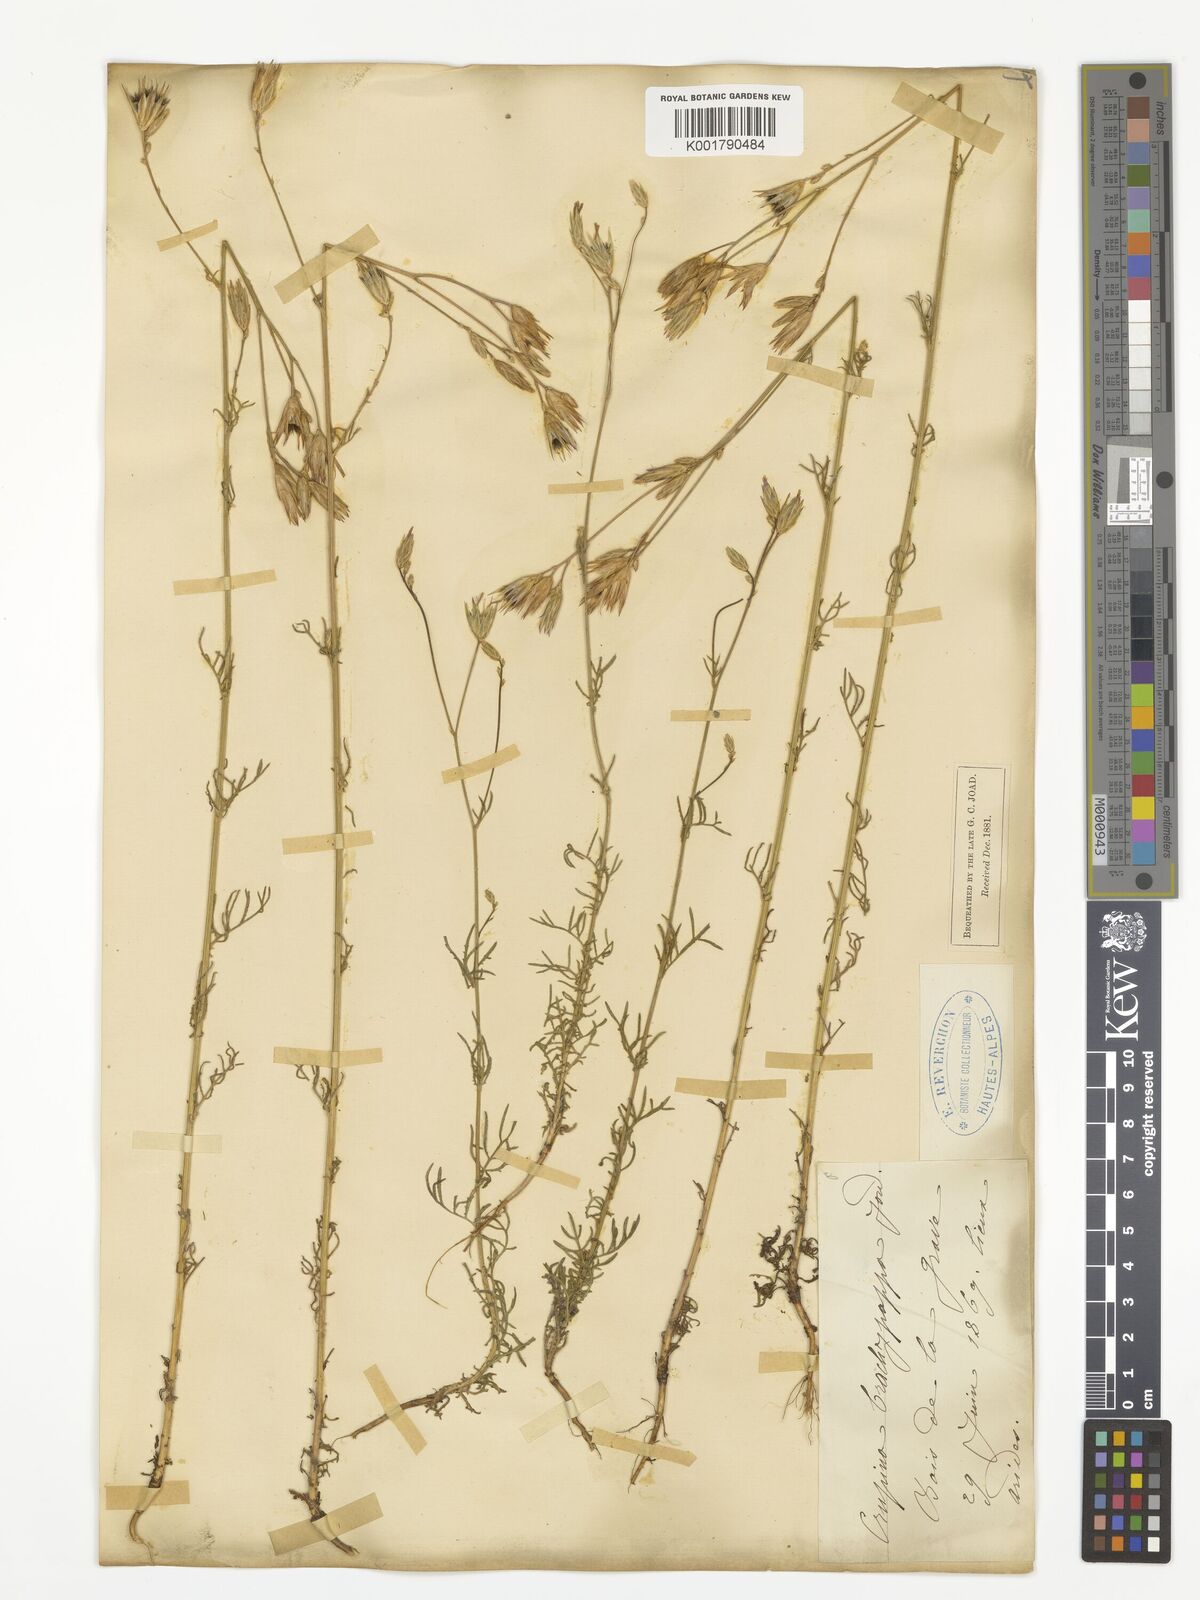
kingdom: Plantae
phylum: Tracheophyta
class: Magnoliopsida
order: Asterales
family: Asteraceae
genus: Crupina
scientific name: Crupina vulgaris
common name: Common crupina
